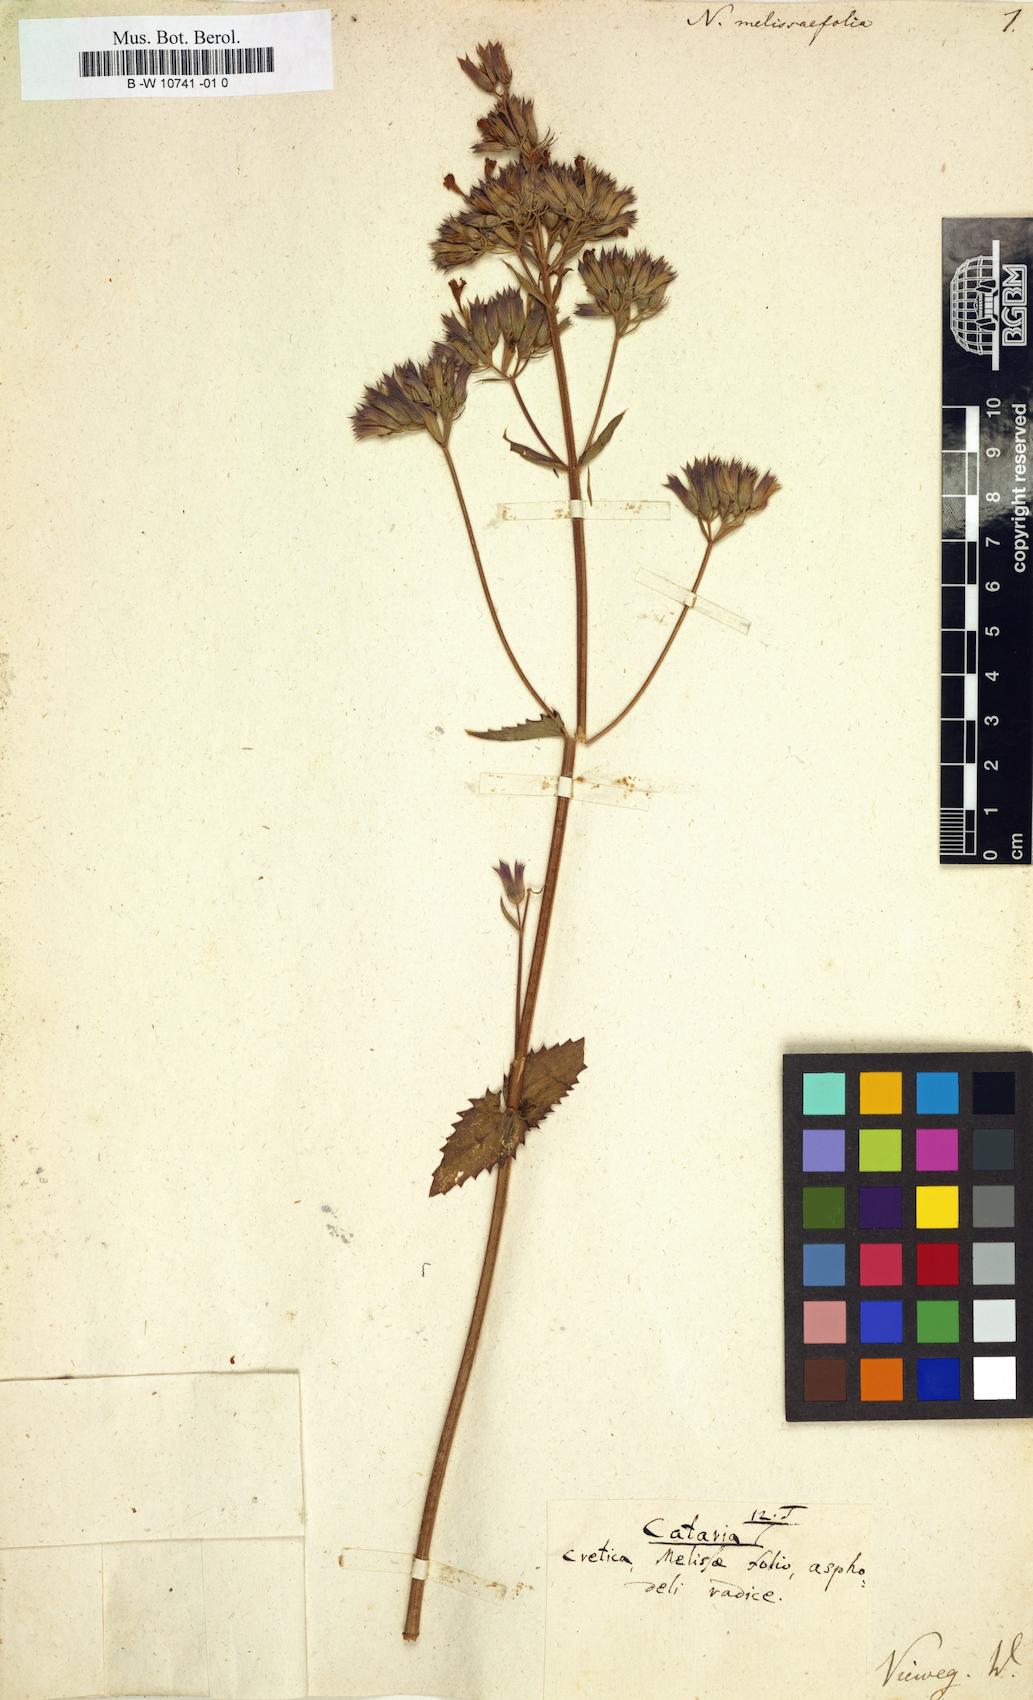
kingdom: Plantae
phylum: Tracheophyta
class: Magnoliopsida
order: Lamiales
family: Lamiaceae
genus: Nepeta
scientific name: Nepeta melissifolia
